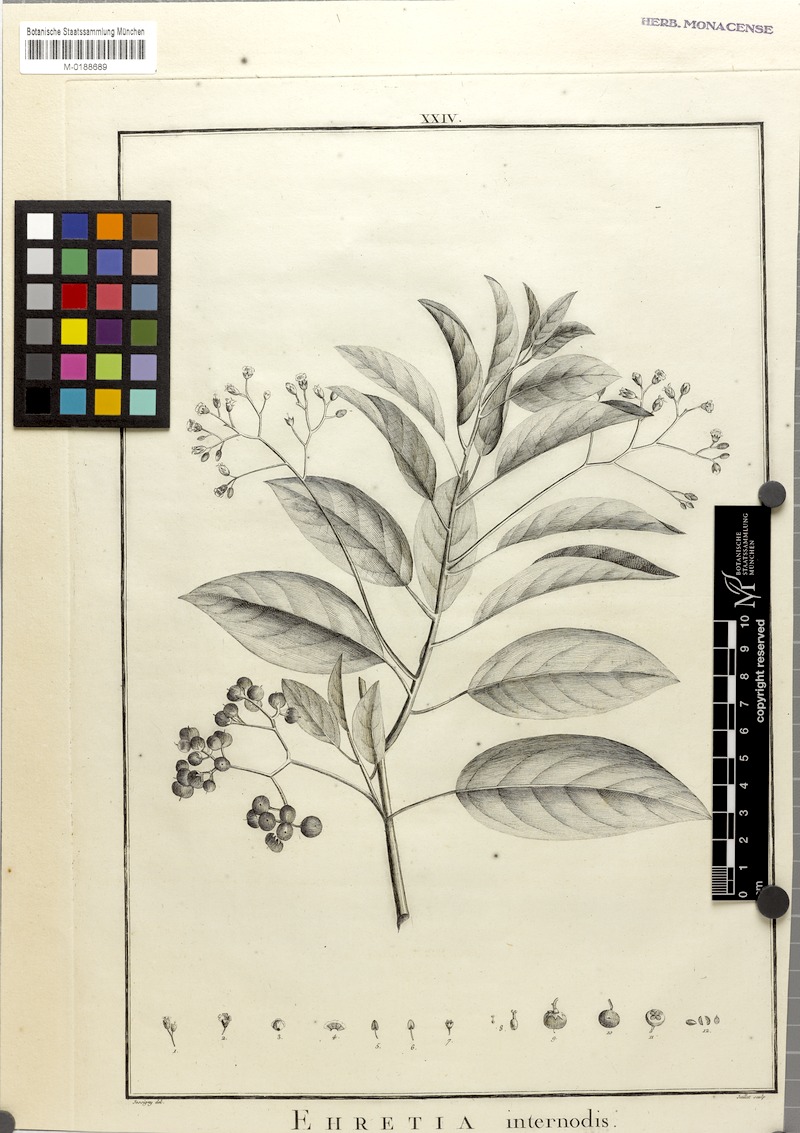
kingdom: Plantae
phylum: Tracheophyta
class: Magnoliopsida
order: Boraginales
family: Ehretiaceae
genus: Ehretia
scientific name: Ehretia
